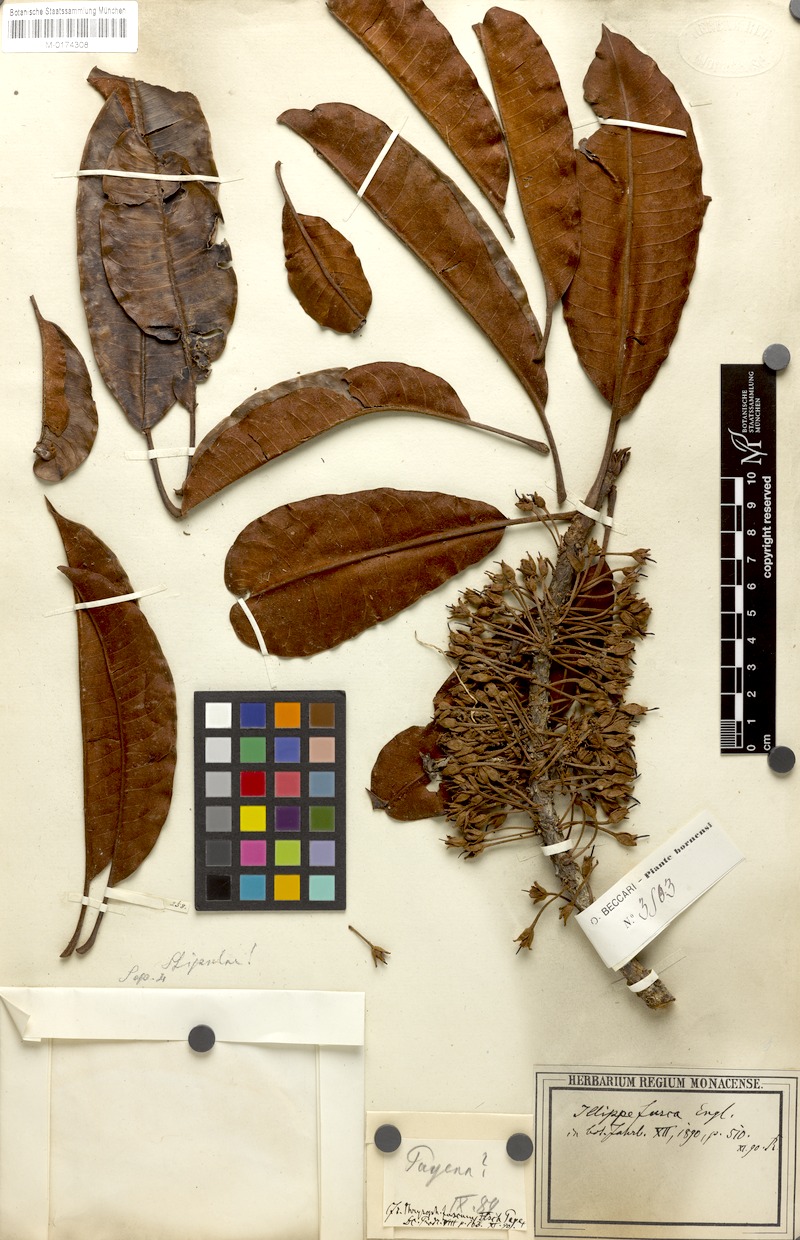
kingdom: Plantae
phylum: Tracheophyta
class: Magnoliopsida
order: Ericales
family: Sapotaceae
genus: Madhuca
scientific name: Madhuca fusca
